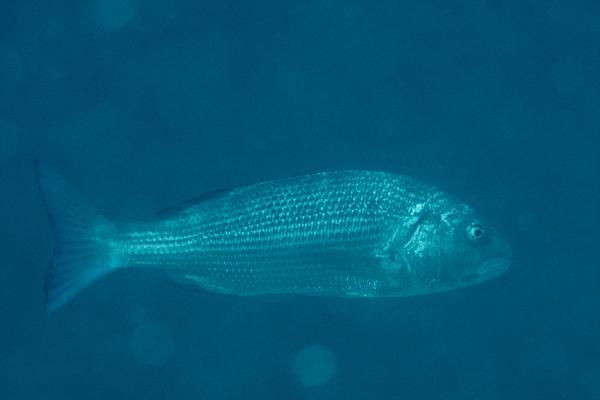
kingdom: Animalia
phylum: Chordata
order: Perciformes
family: Sparidae
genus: Sparidentex
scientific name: Sparidentex hasta
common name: Silver black porgy
